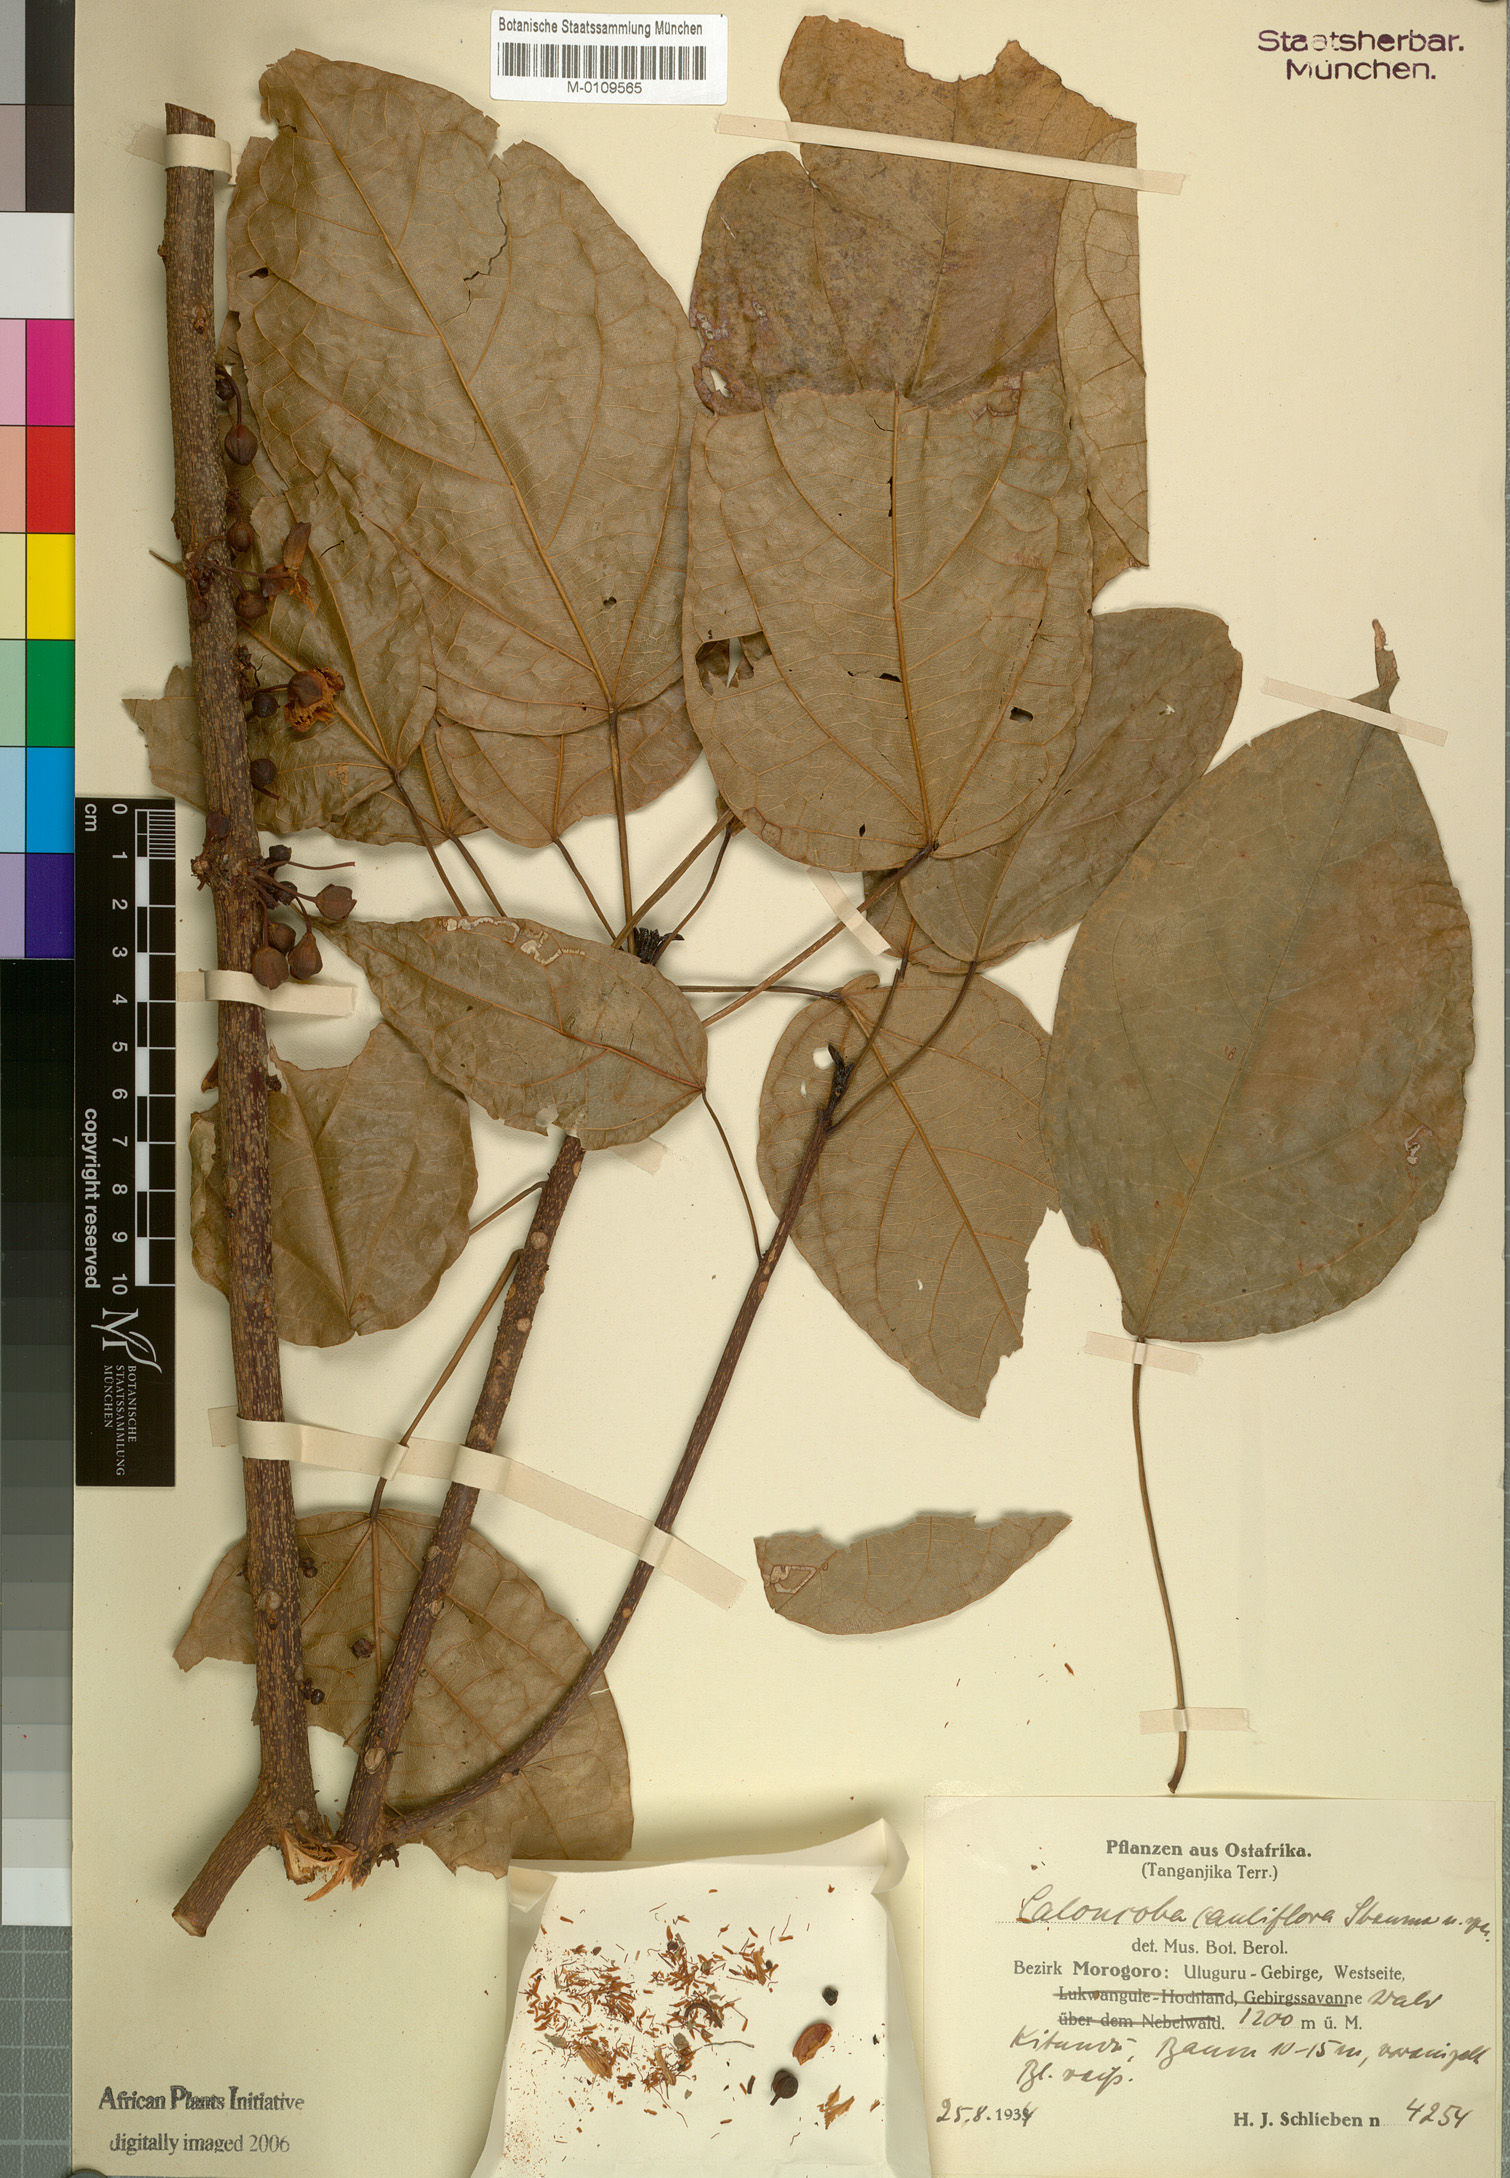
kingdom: Plantae
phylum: Tracheophyta
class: Magnoliopsida
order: Malpighiales
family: Achariaceae
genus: Caloncoba
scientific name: Caloncoba welwitschii
